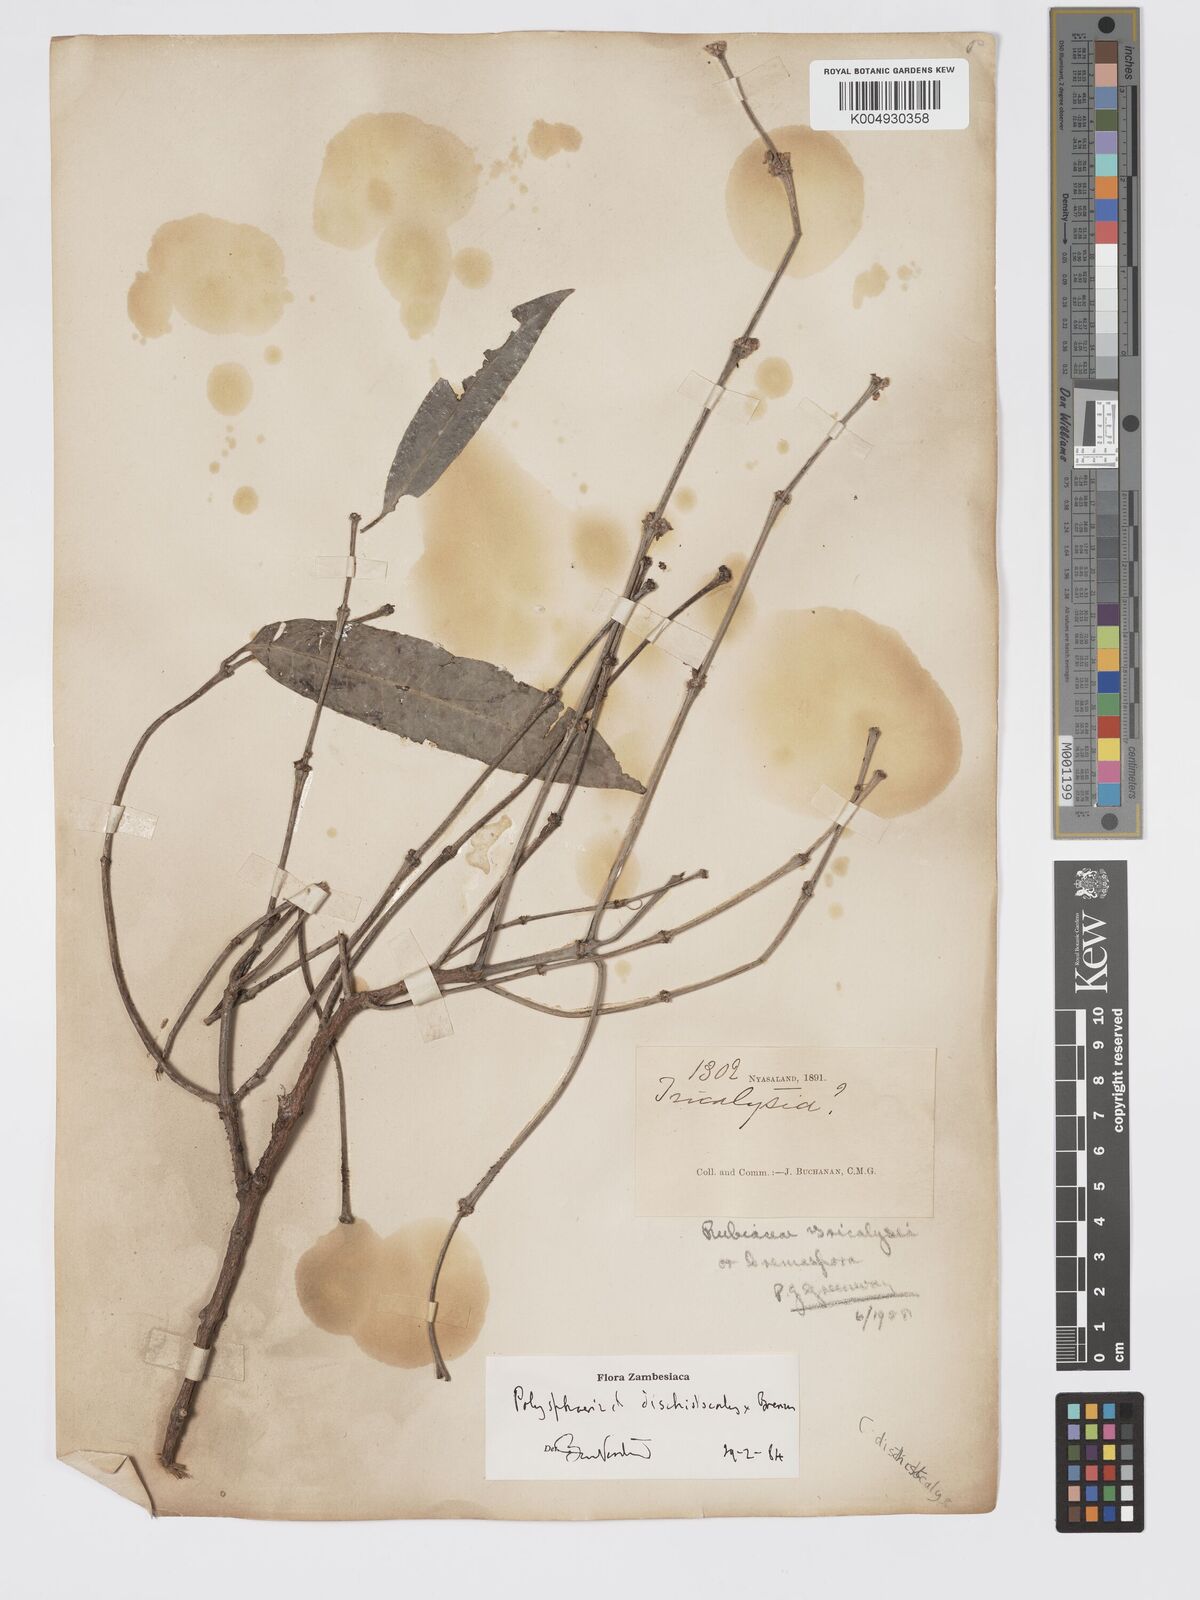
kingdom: Plantae
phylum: Tracheophyta
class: Magnoliopsida
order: Gentianales
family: Rubiaceae
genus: Polysphaeria
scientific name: Polysphaeria dischistocalyx
